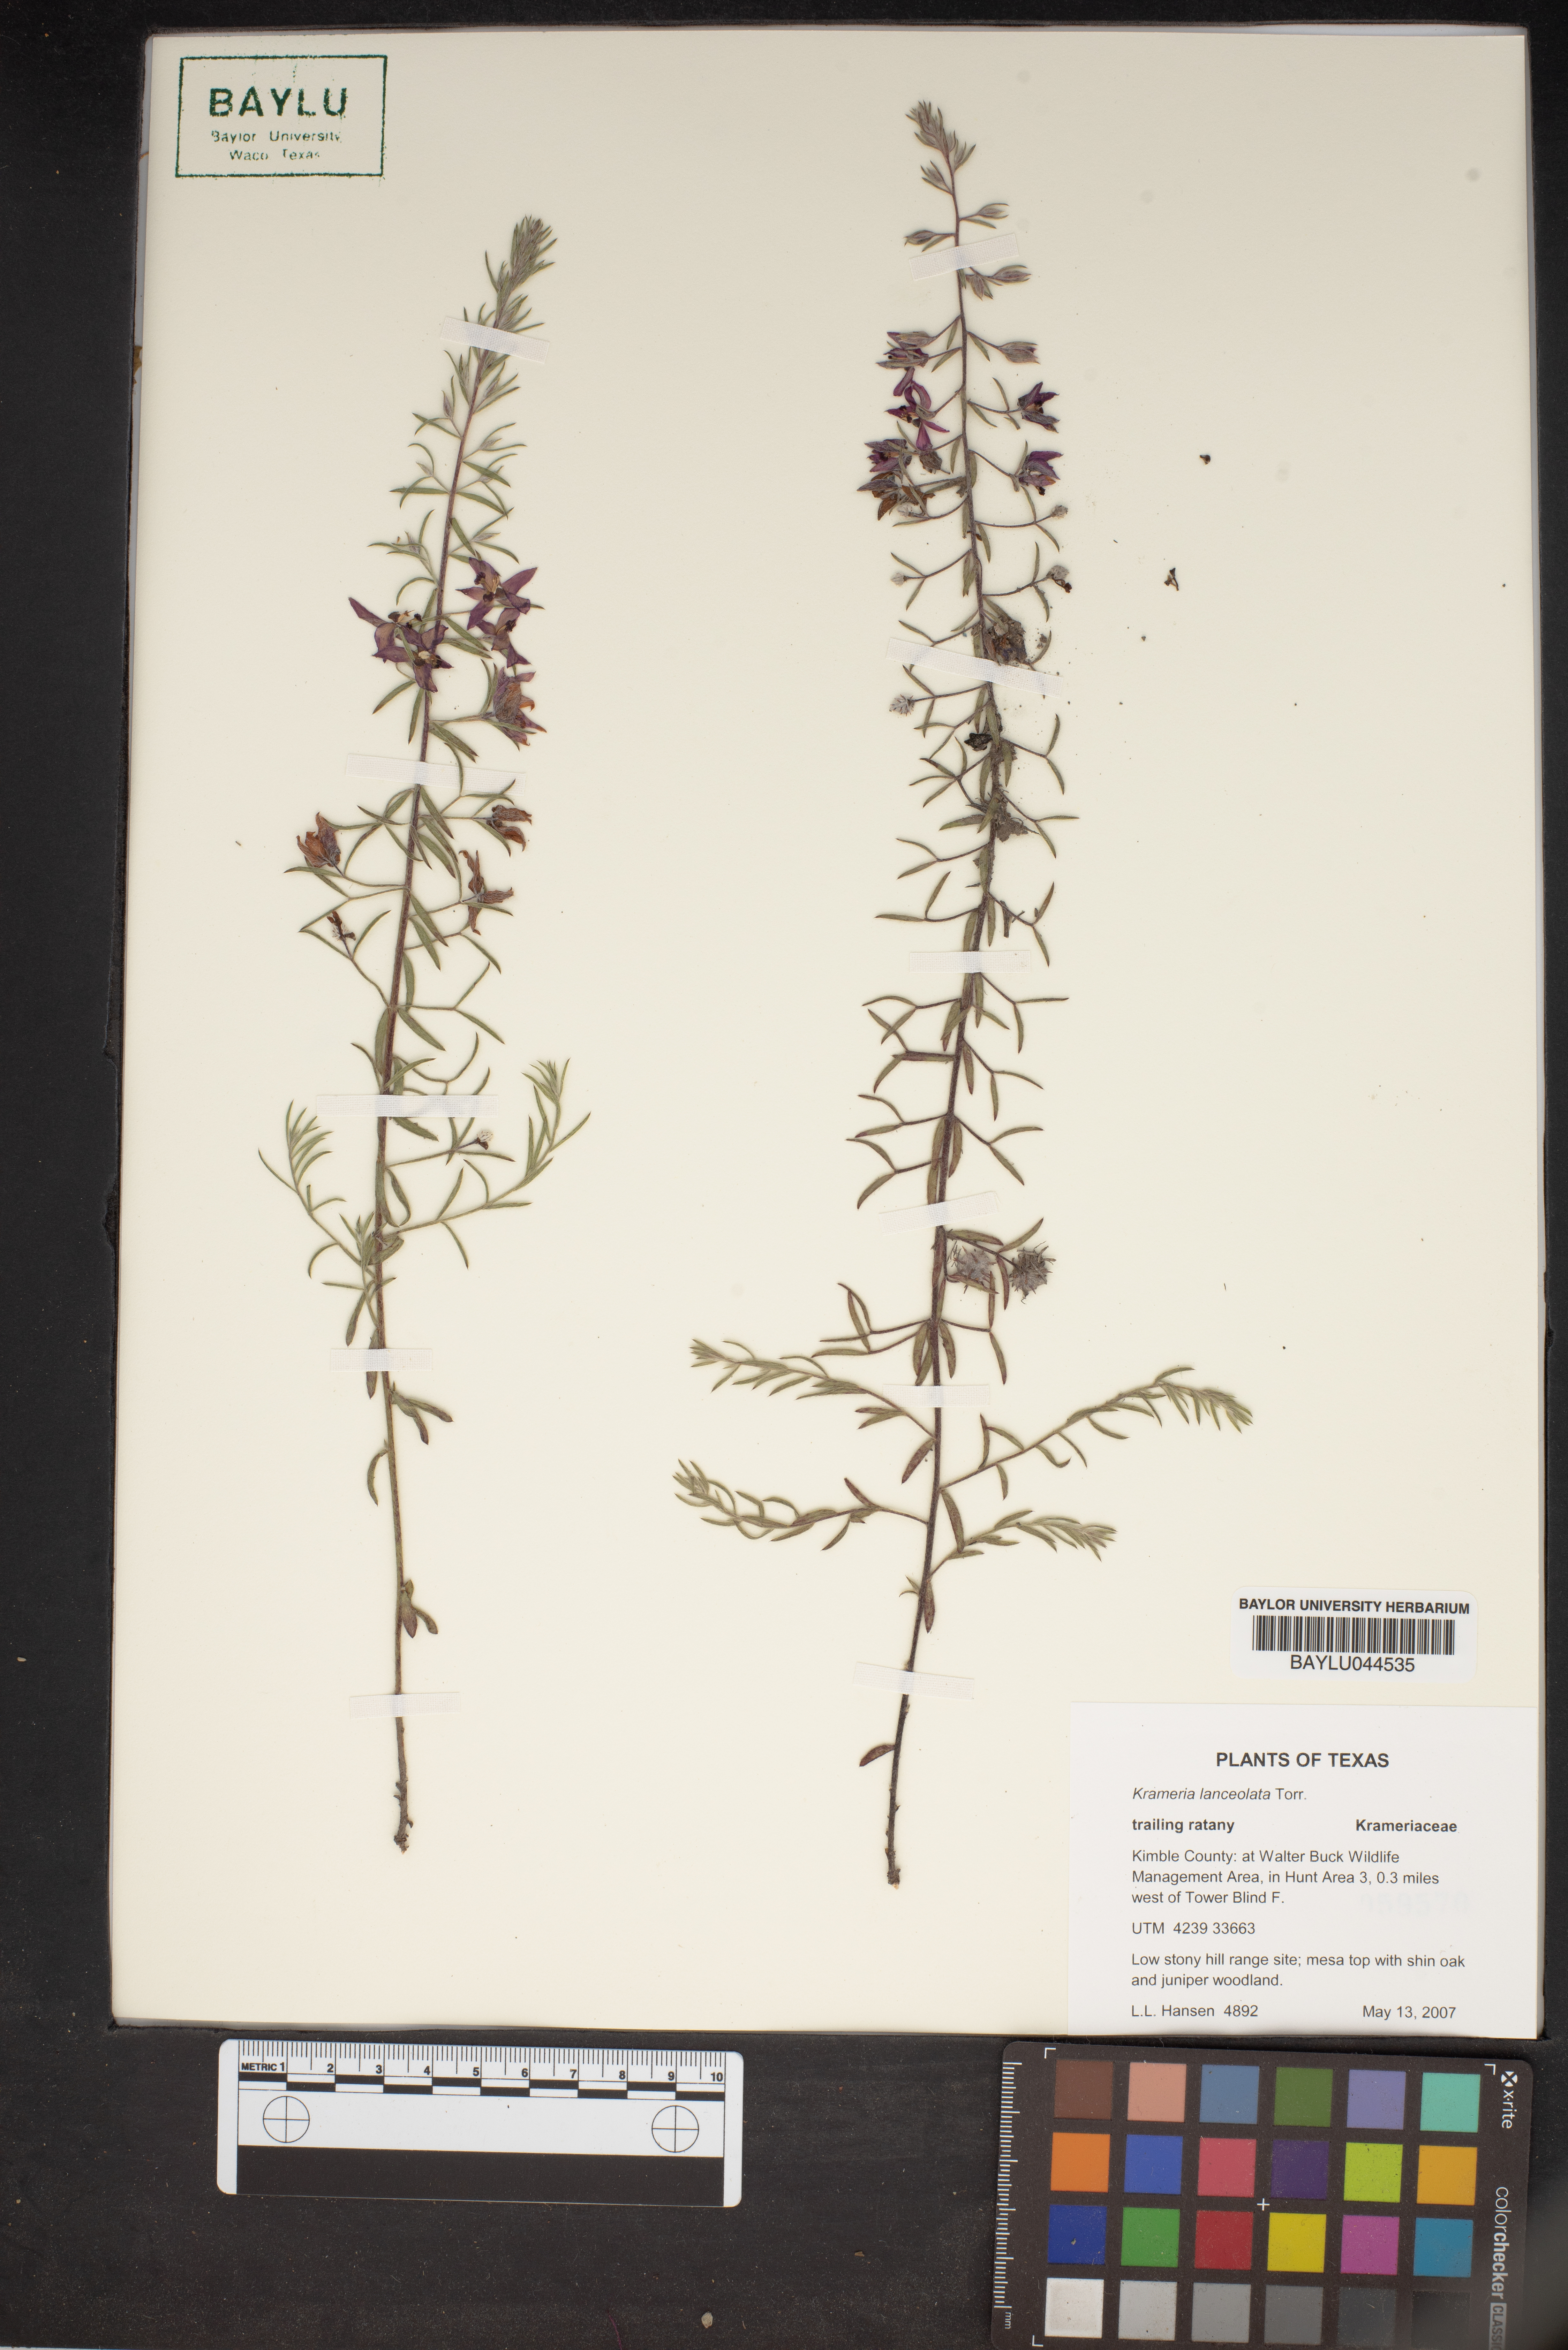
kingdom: Plantae
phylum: Tracheophyta
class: Magnoliopsida
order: Zygophyllales
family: Krameriaceae
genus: Krameria
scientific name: Krameria lanceolata
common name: Ratany
